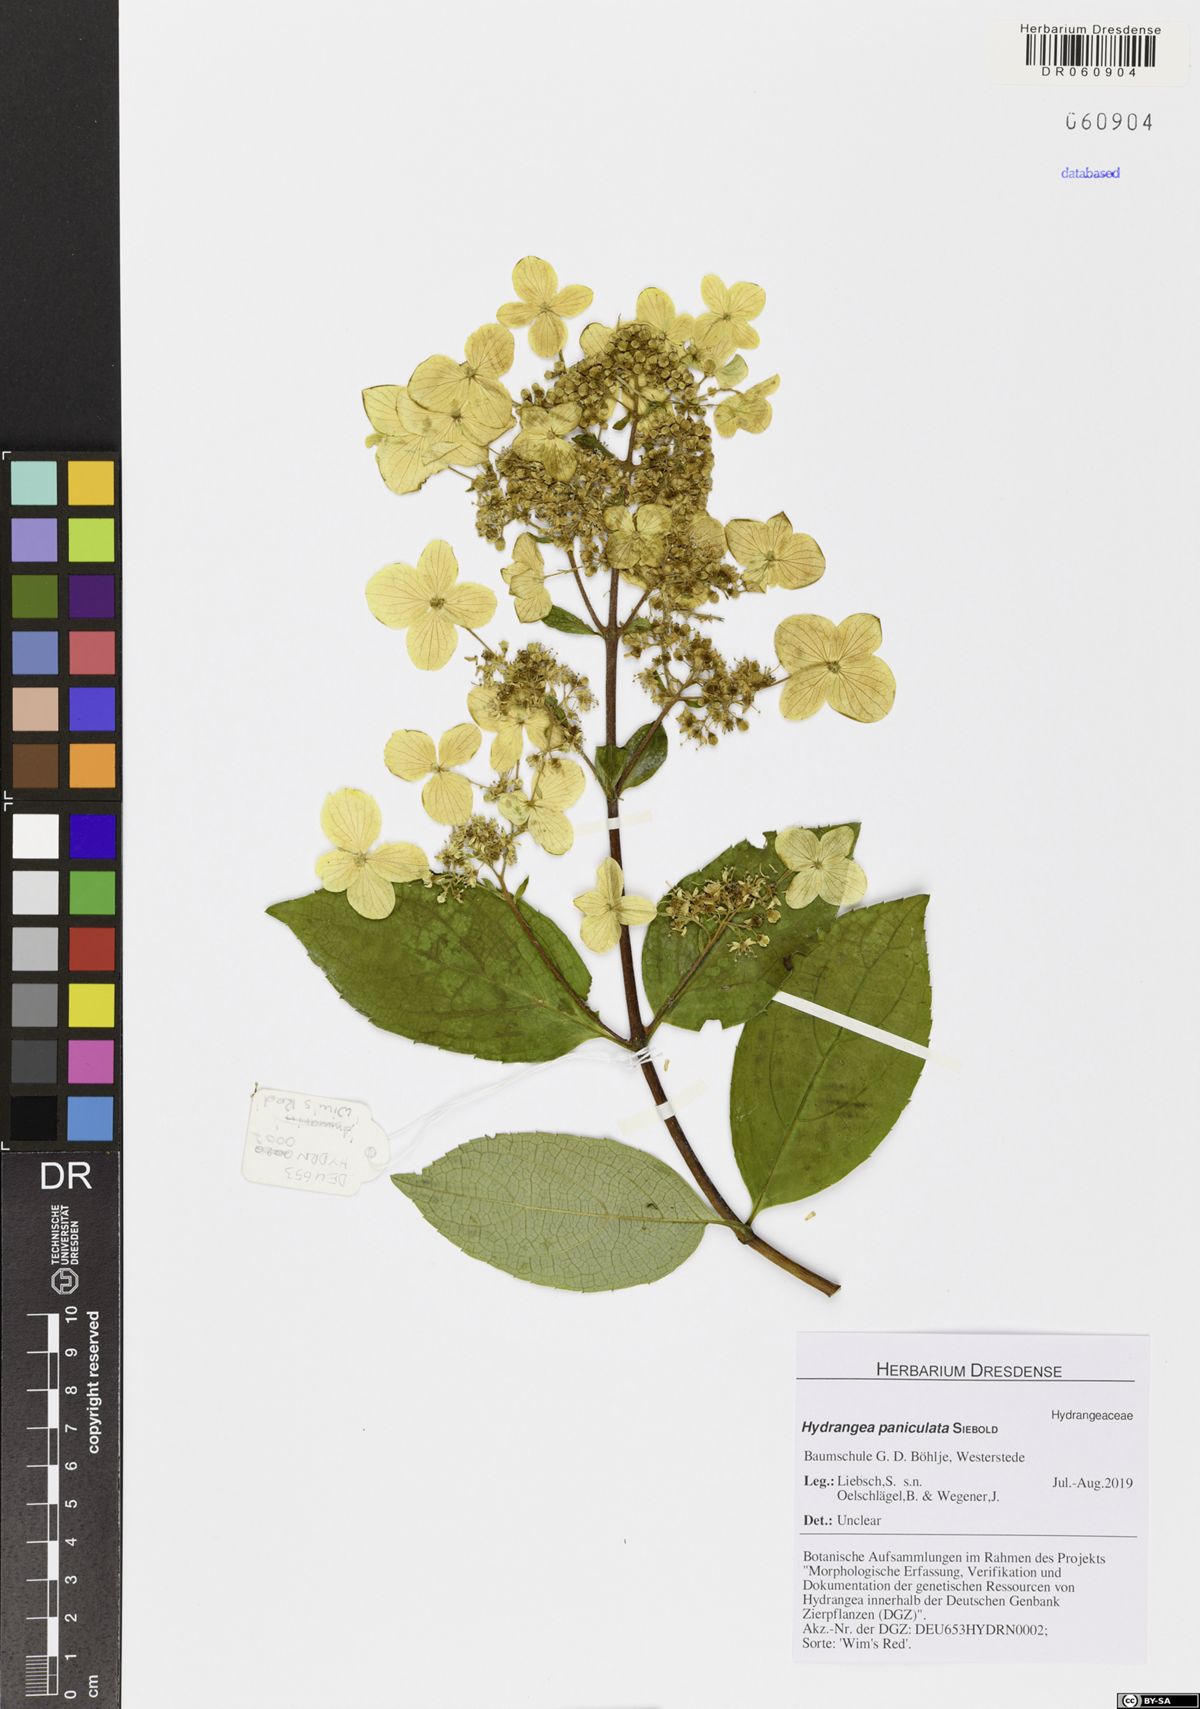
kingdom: Plantae
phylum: Tracheophyta
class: Magnoliopsida
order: Cornales
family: Hydrangeaceae
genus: Hydrangea
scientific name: Hydrangea paniculata
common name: Panicled hydrangea
